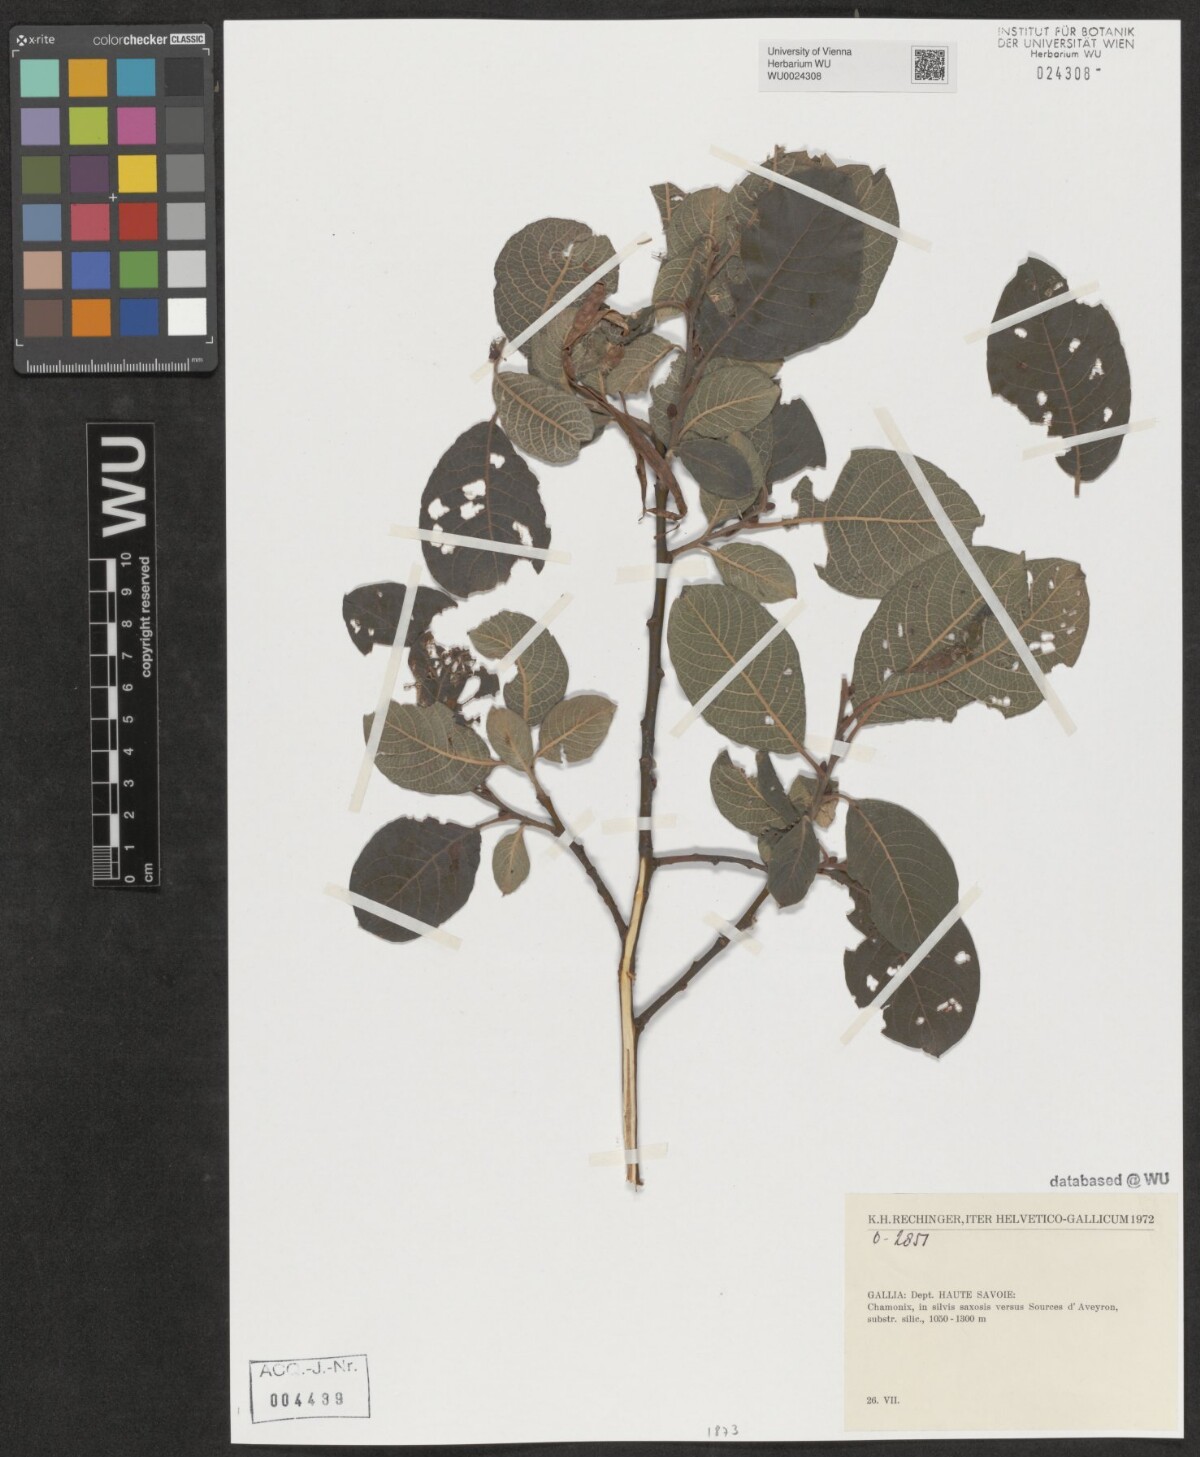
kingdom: Plantae
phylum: Tracheophyta
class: Magnoliopsida
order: Malpighiales
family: Salicaceae
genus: Salix
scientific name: Salix
